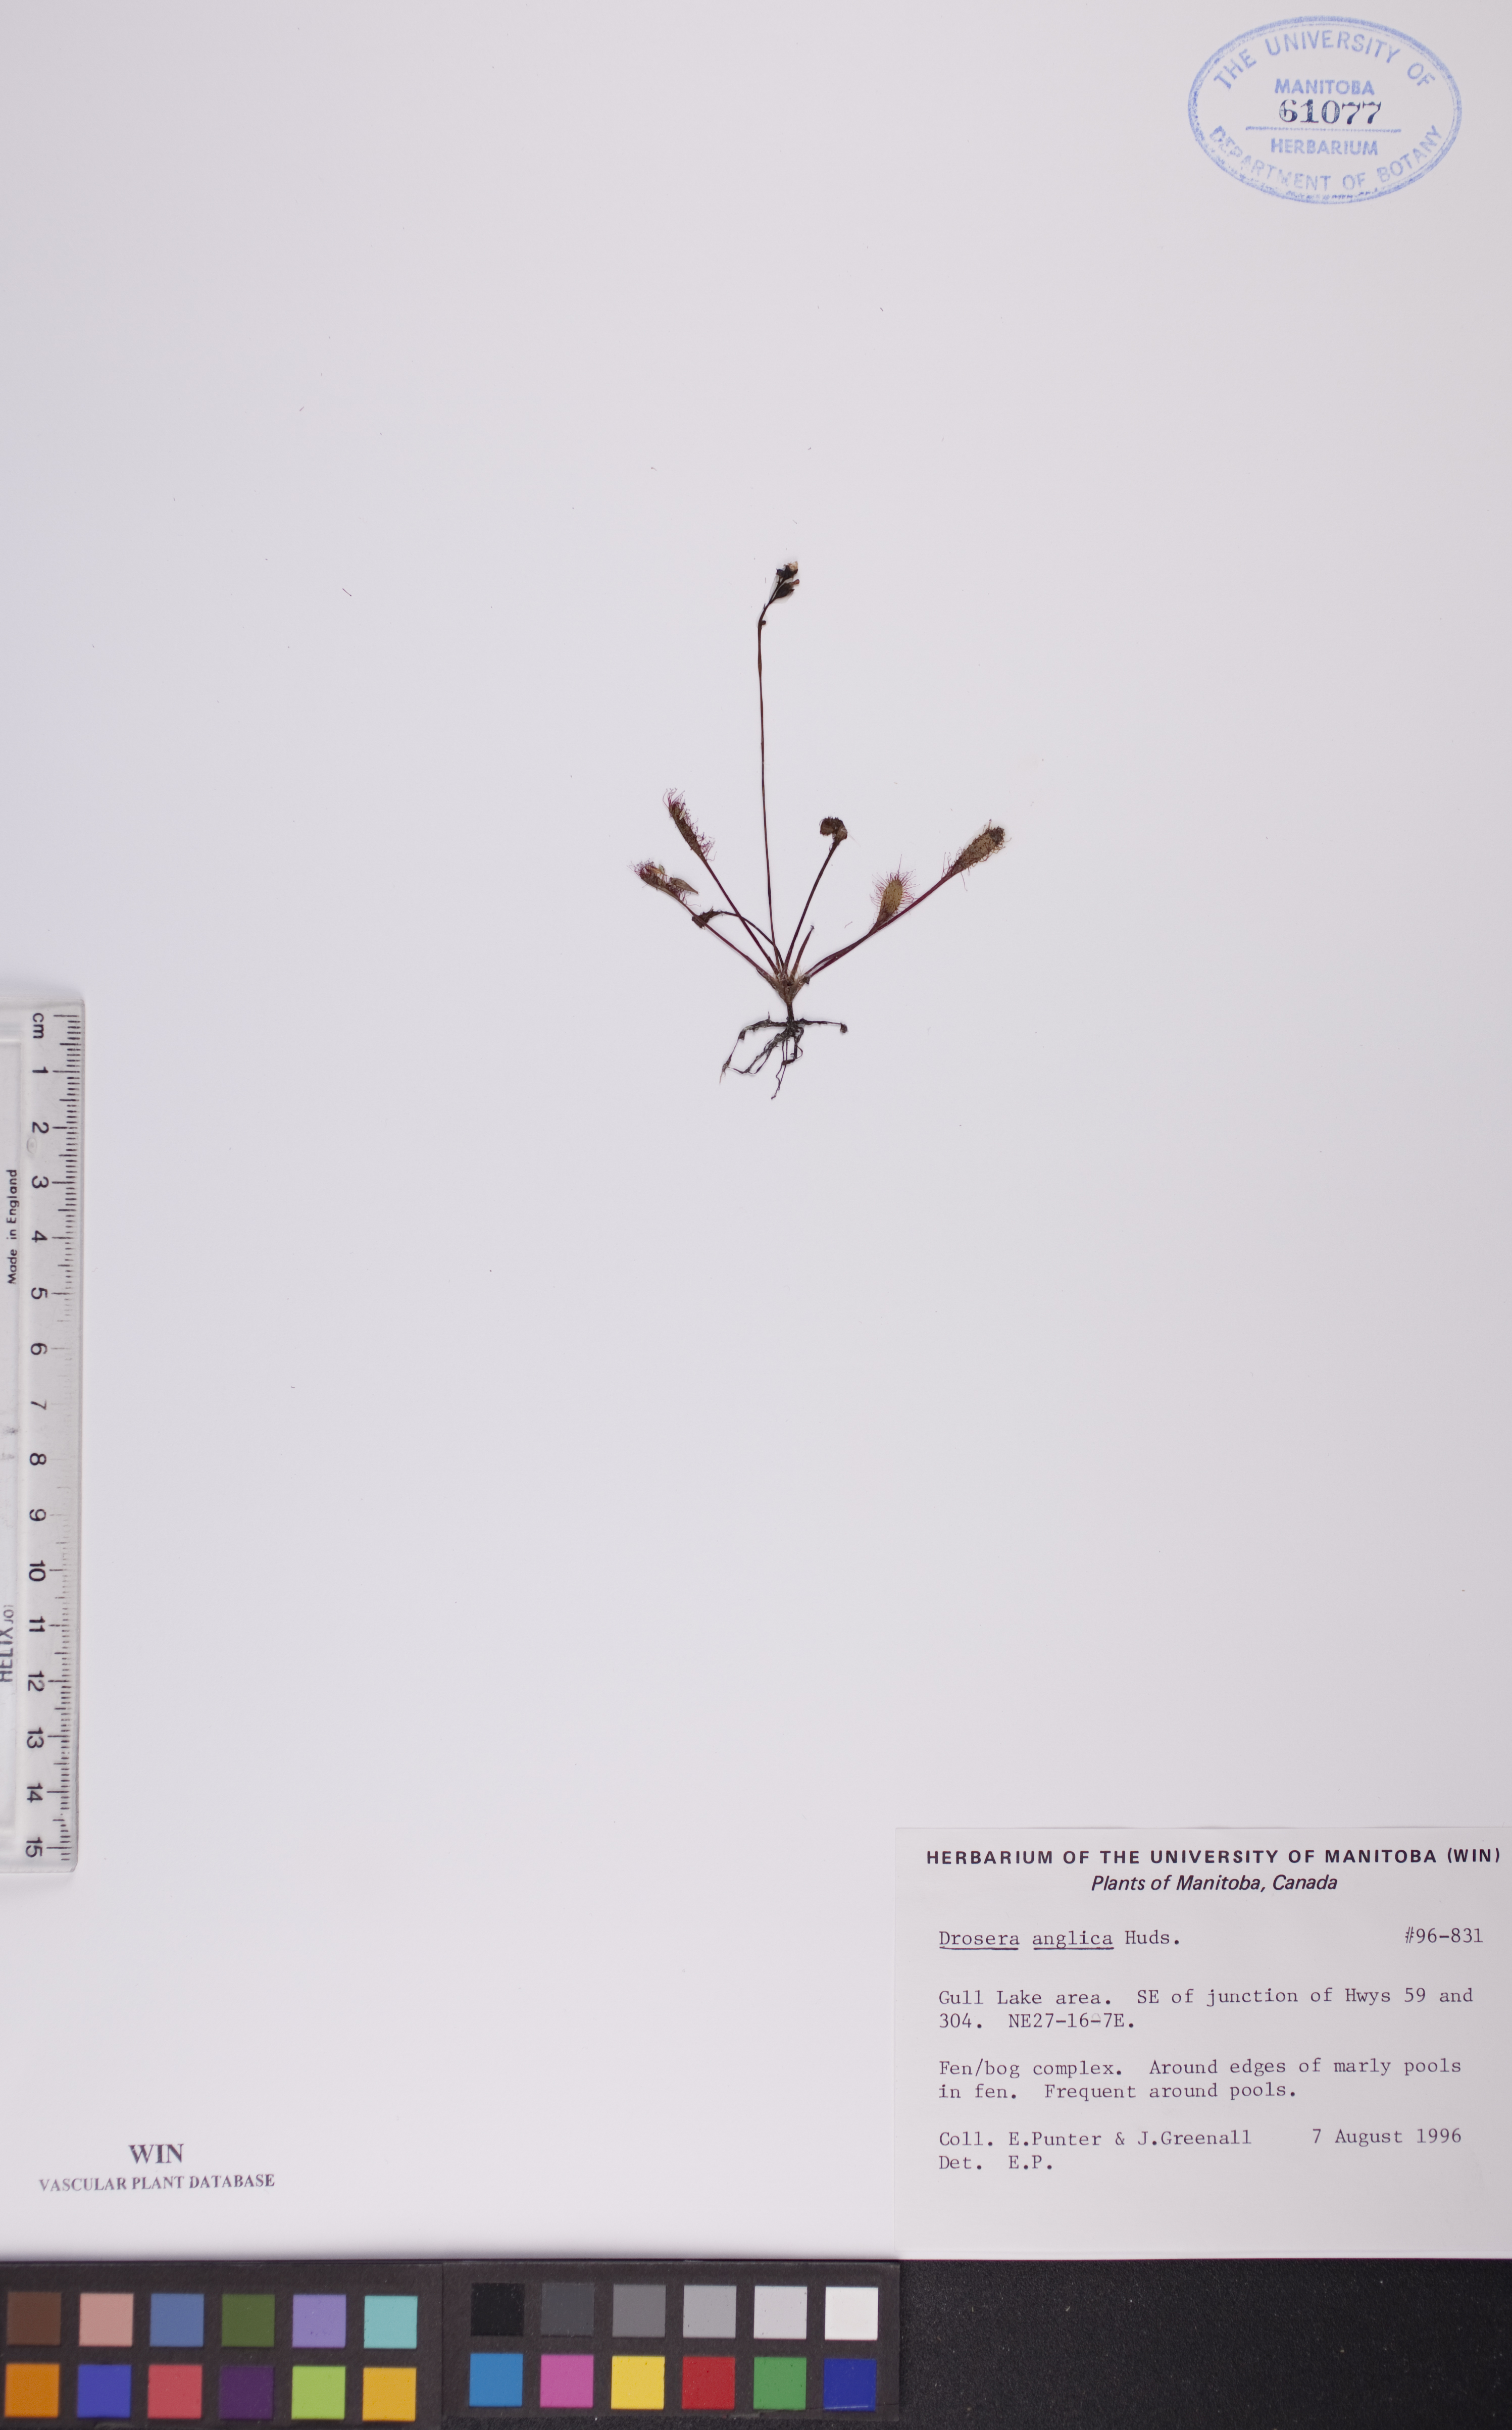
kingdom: Plantae
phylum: Tracheophyta
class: Magnoliopsida
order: Caryophyllales
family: Droseraceae
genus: Drosera
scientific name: Drosera anglica
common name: Great sundew
